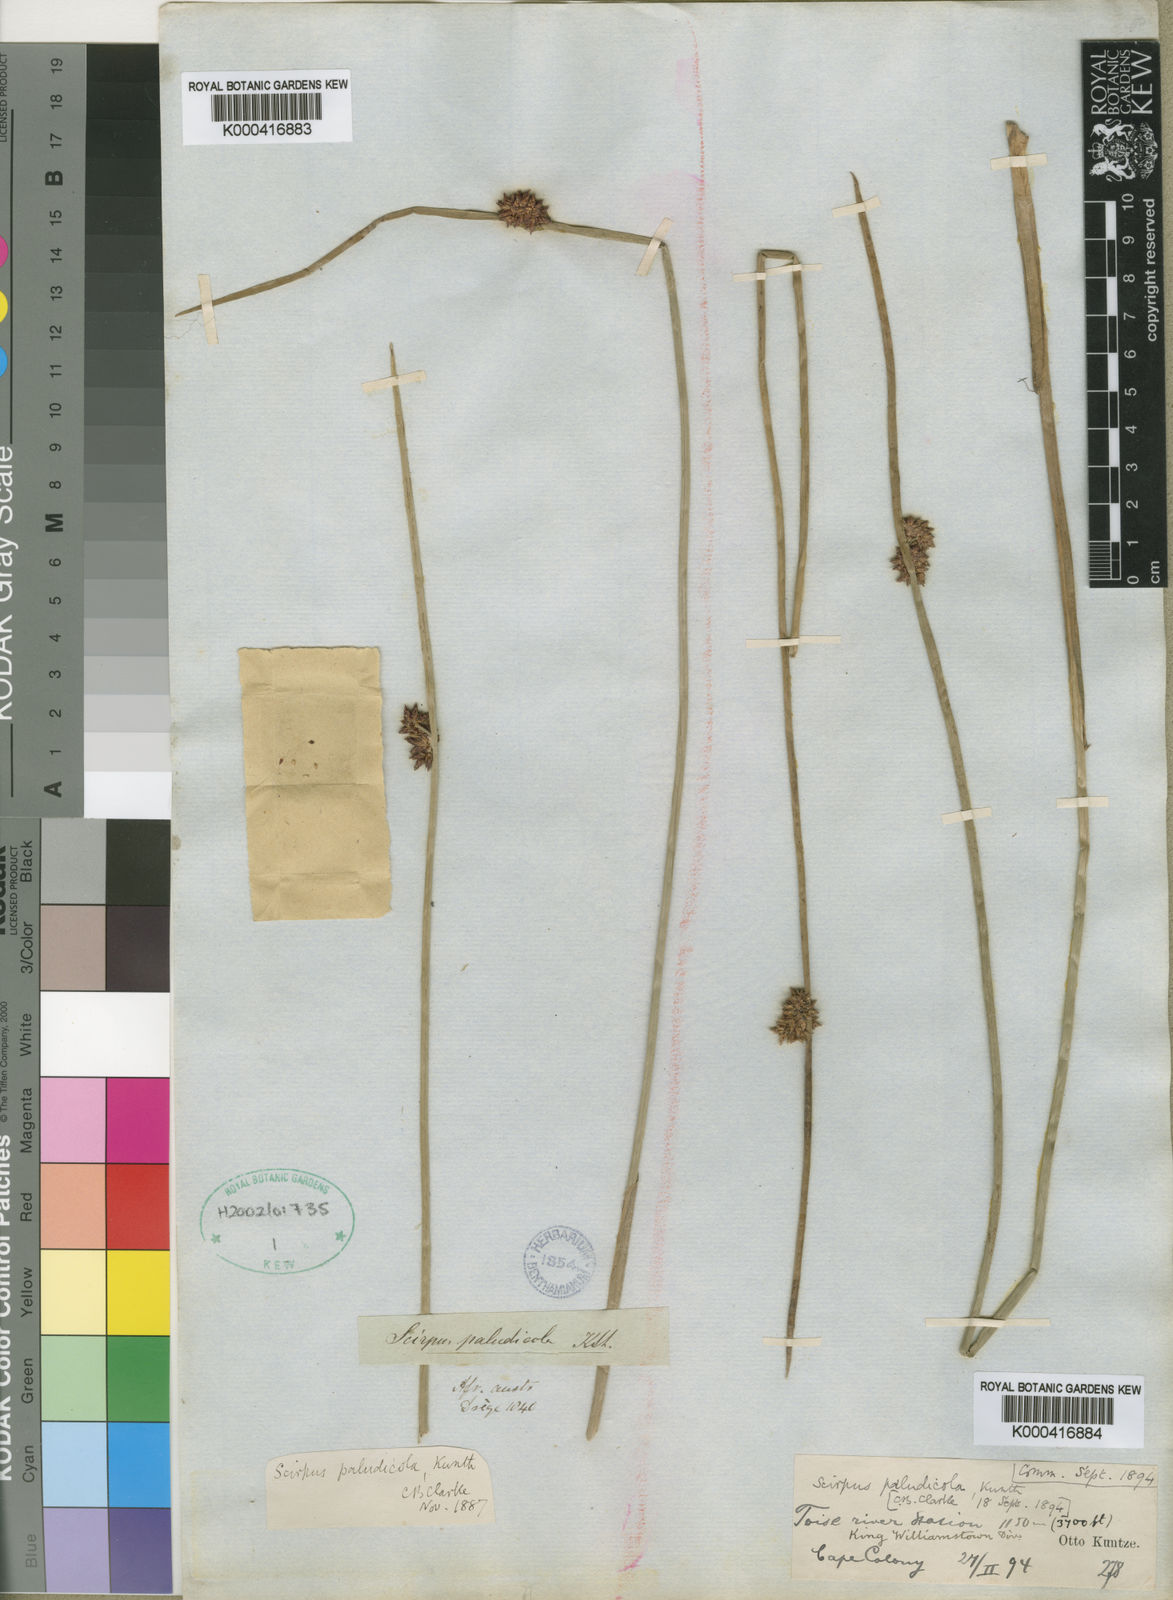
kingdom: Plantae
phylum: Tracheophyta
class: Liliopsida
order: Poales
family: Cyperaceae
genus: Schoenoplectus
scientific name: Schoenoplectus
